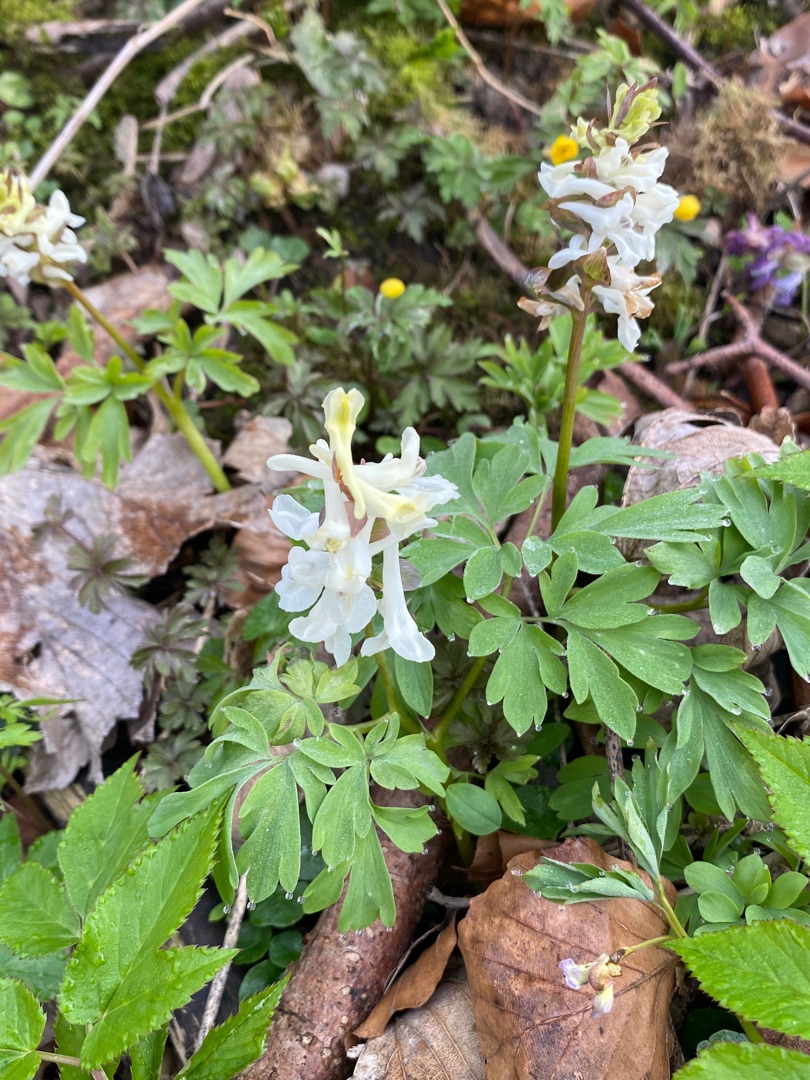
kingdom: Plantae
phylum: Tracheophyta
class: Magnoliopsida
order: Ranunculales
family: Papaveraceae
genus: Corydalis
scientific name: Corydalis cava
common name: Hulrodet lærkespore
